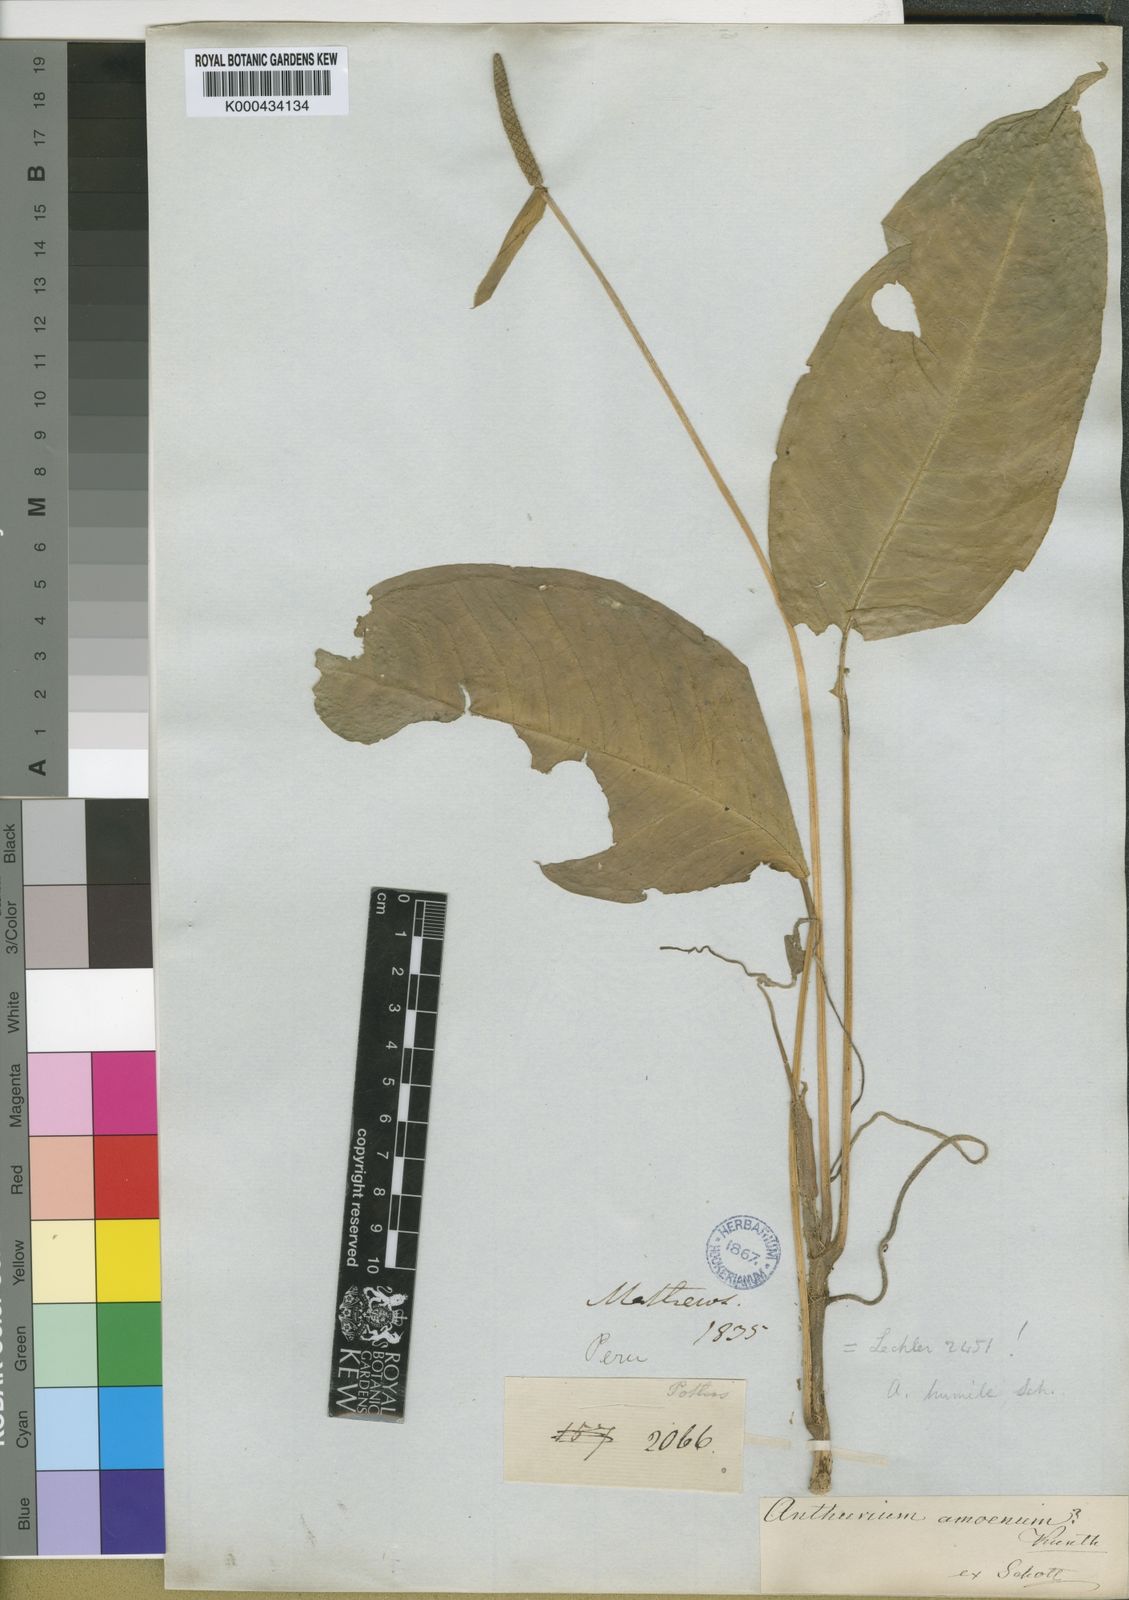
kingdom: Plantae
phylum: Tracheophyta
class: Liliopsida
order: Alismatales
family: Araceae
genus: Anthurium
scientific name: Anthurium amoenum
